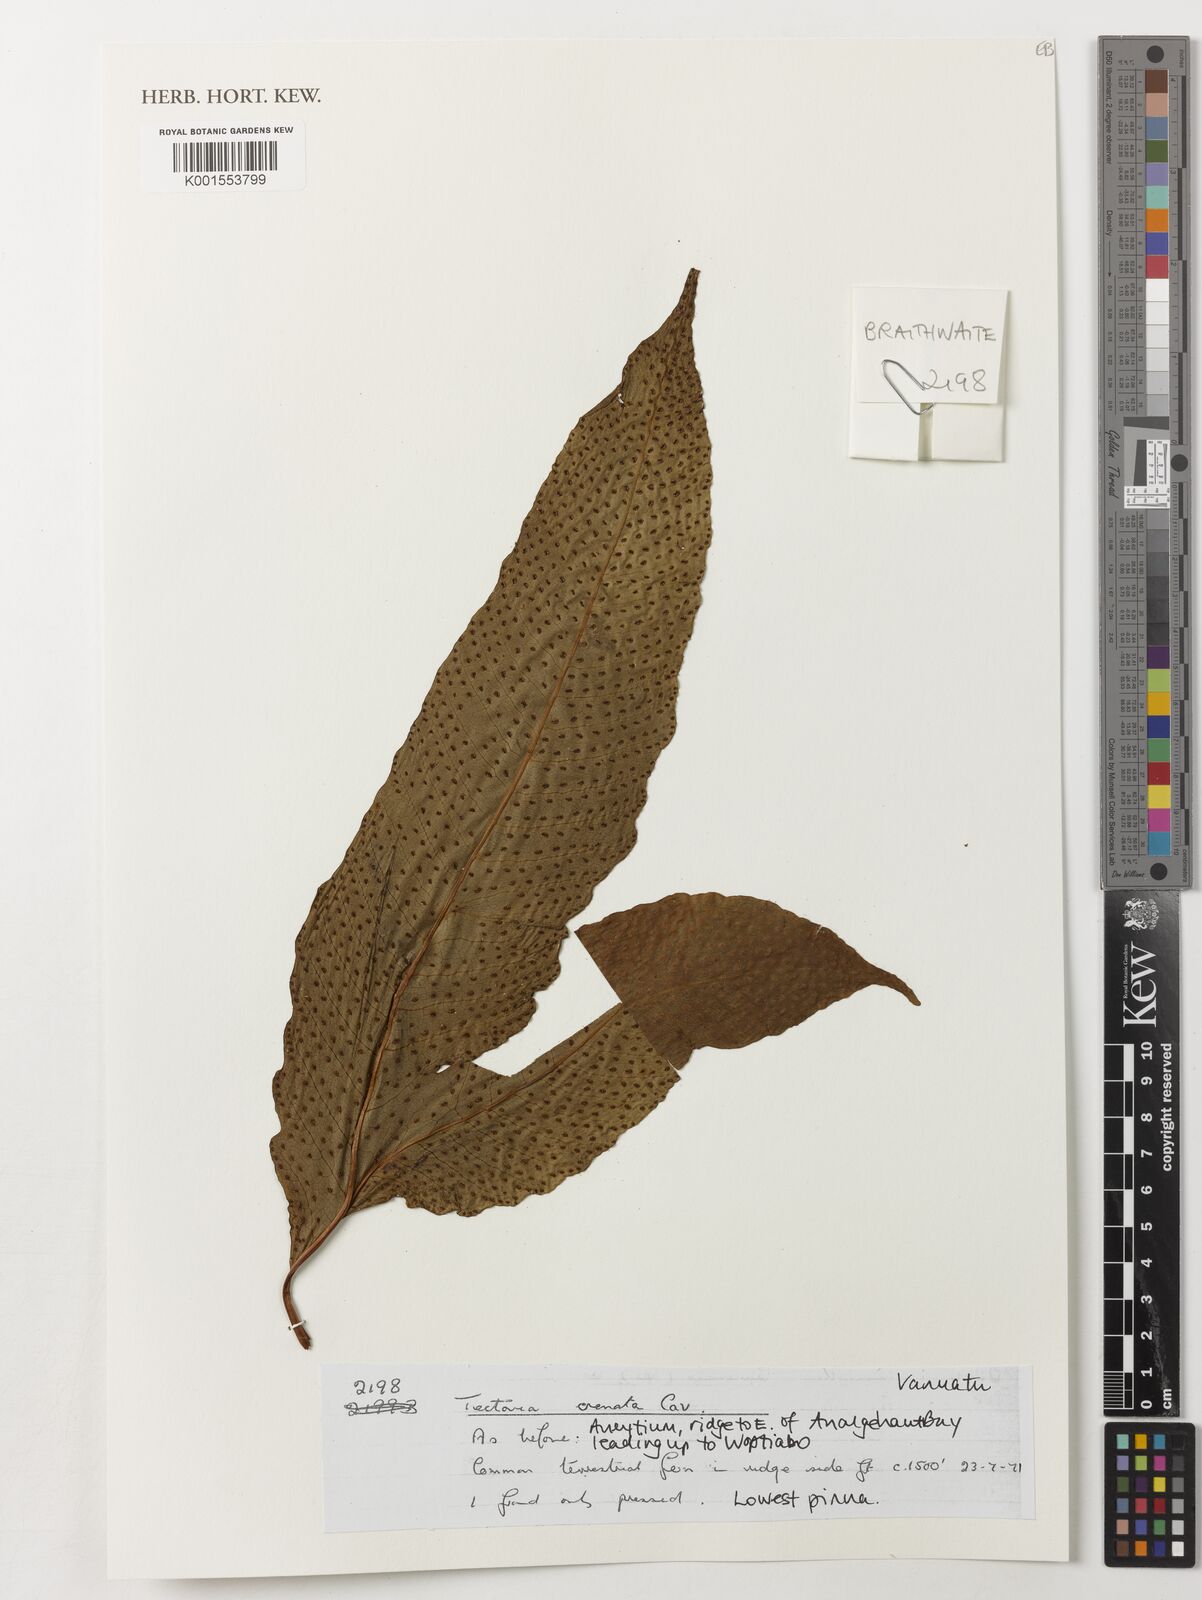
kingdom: Plantae
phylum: Tracheophyta
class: Polypodiopsida
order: Polypodiales
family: Tectariaceae
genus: Tectaria
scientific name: Tectaria crenata
